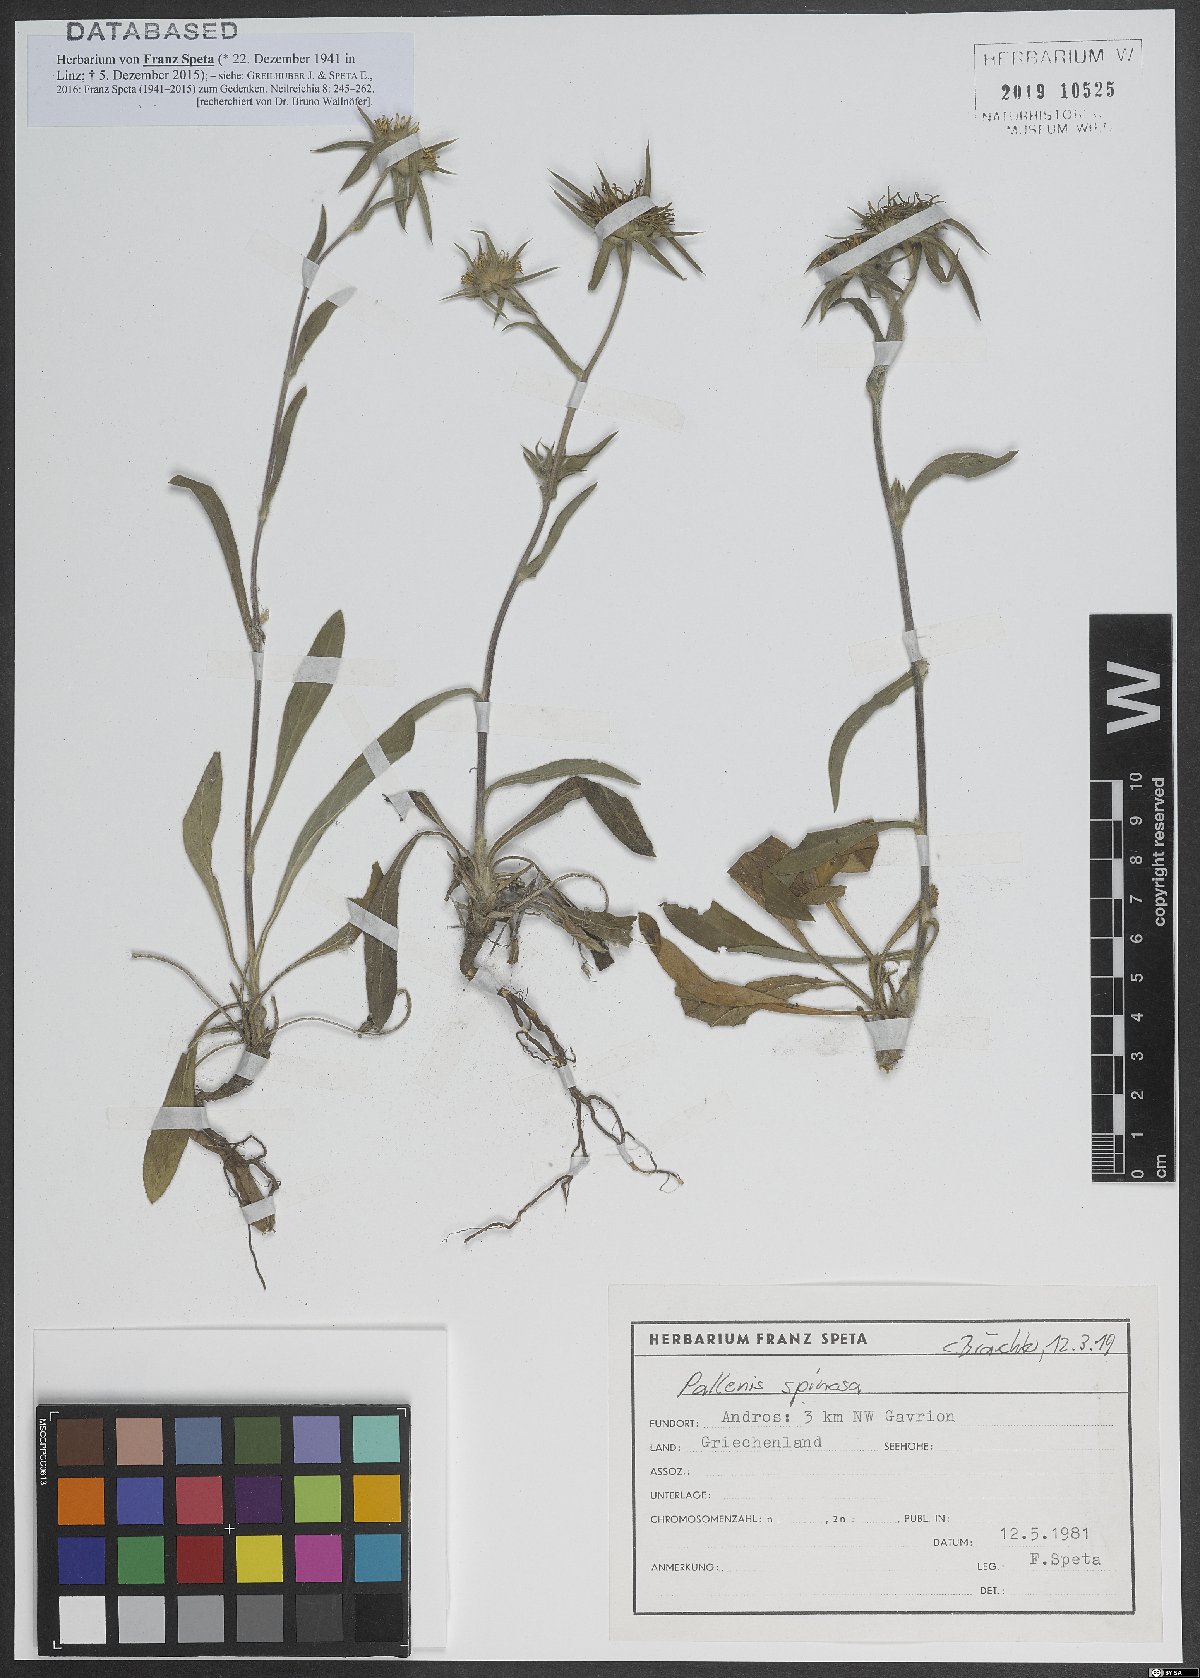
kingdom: Plantae
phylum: Tracheophyta
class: Magnoliopsida
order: Asterales
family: Asteraceae
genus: Pallenis
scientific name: Pallenis spinosa
